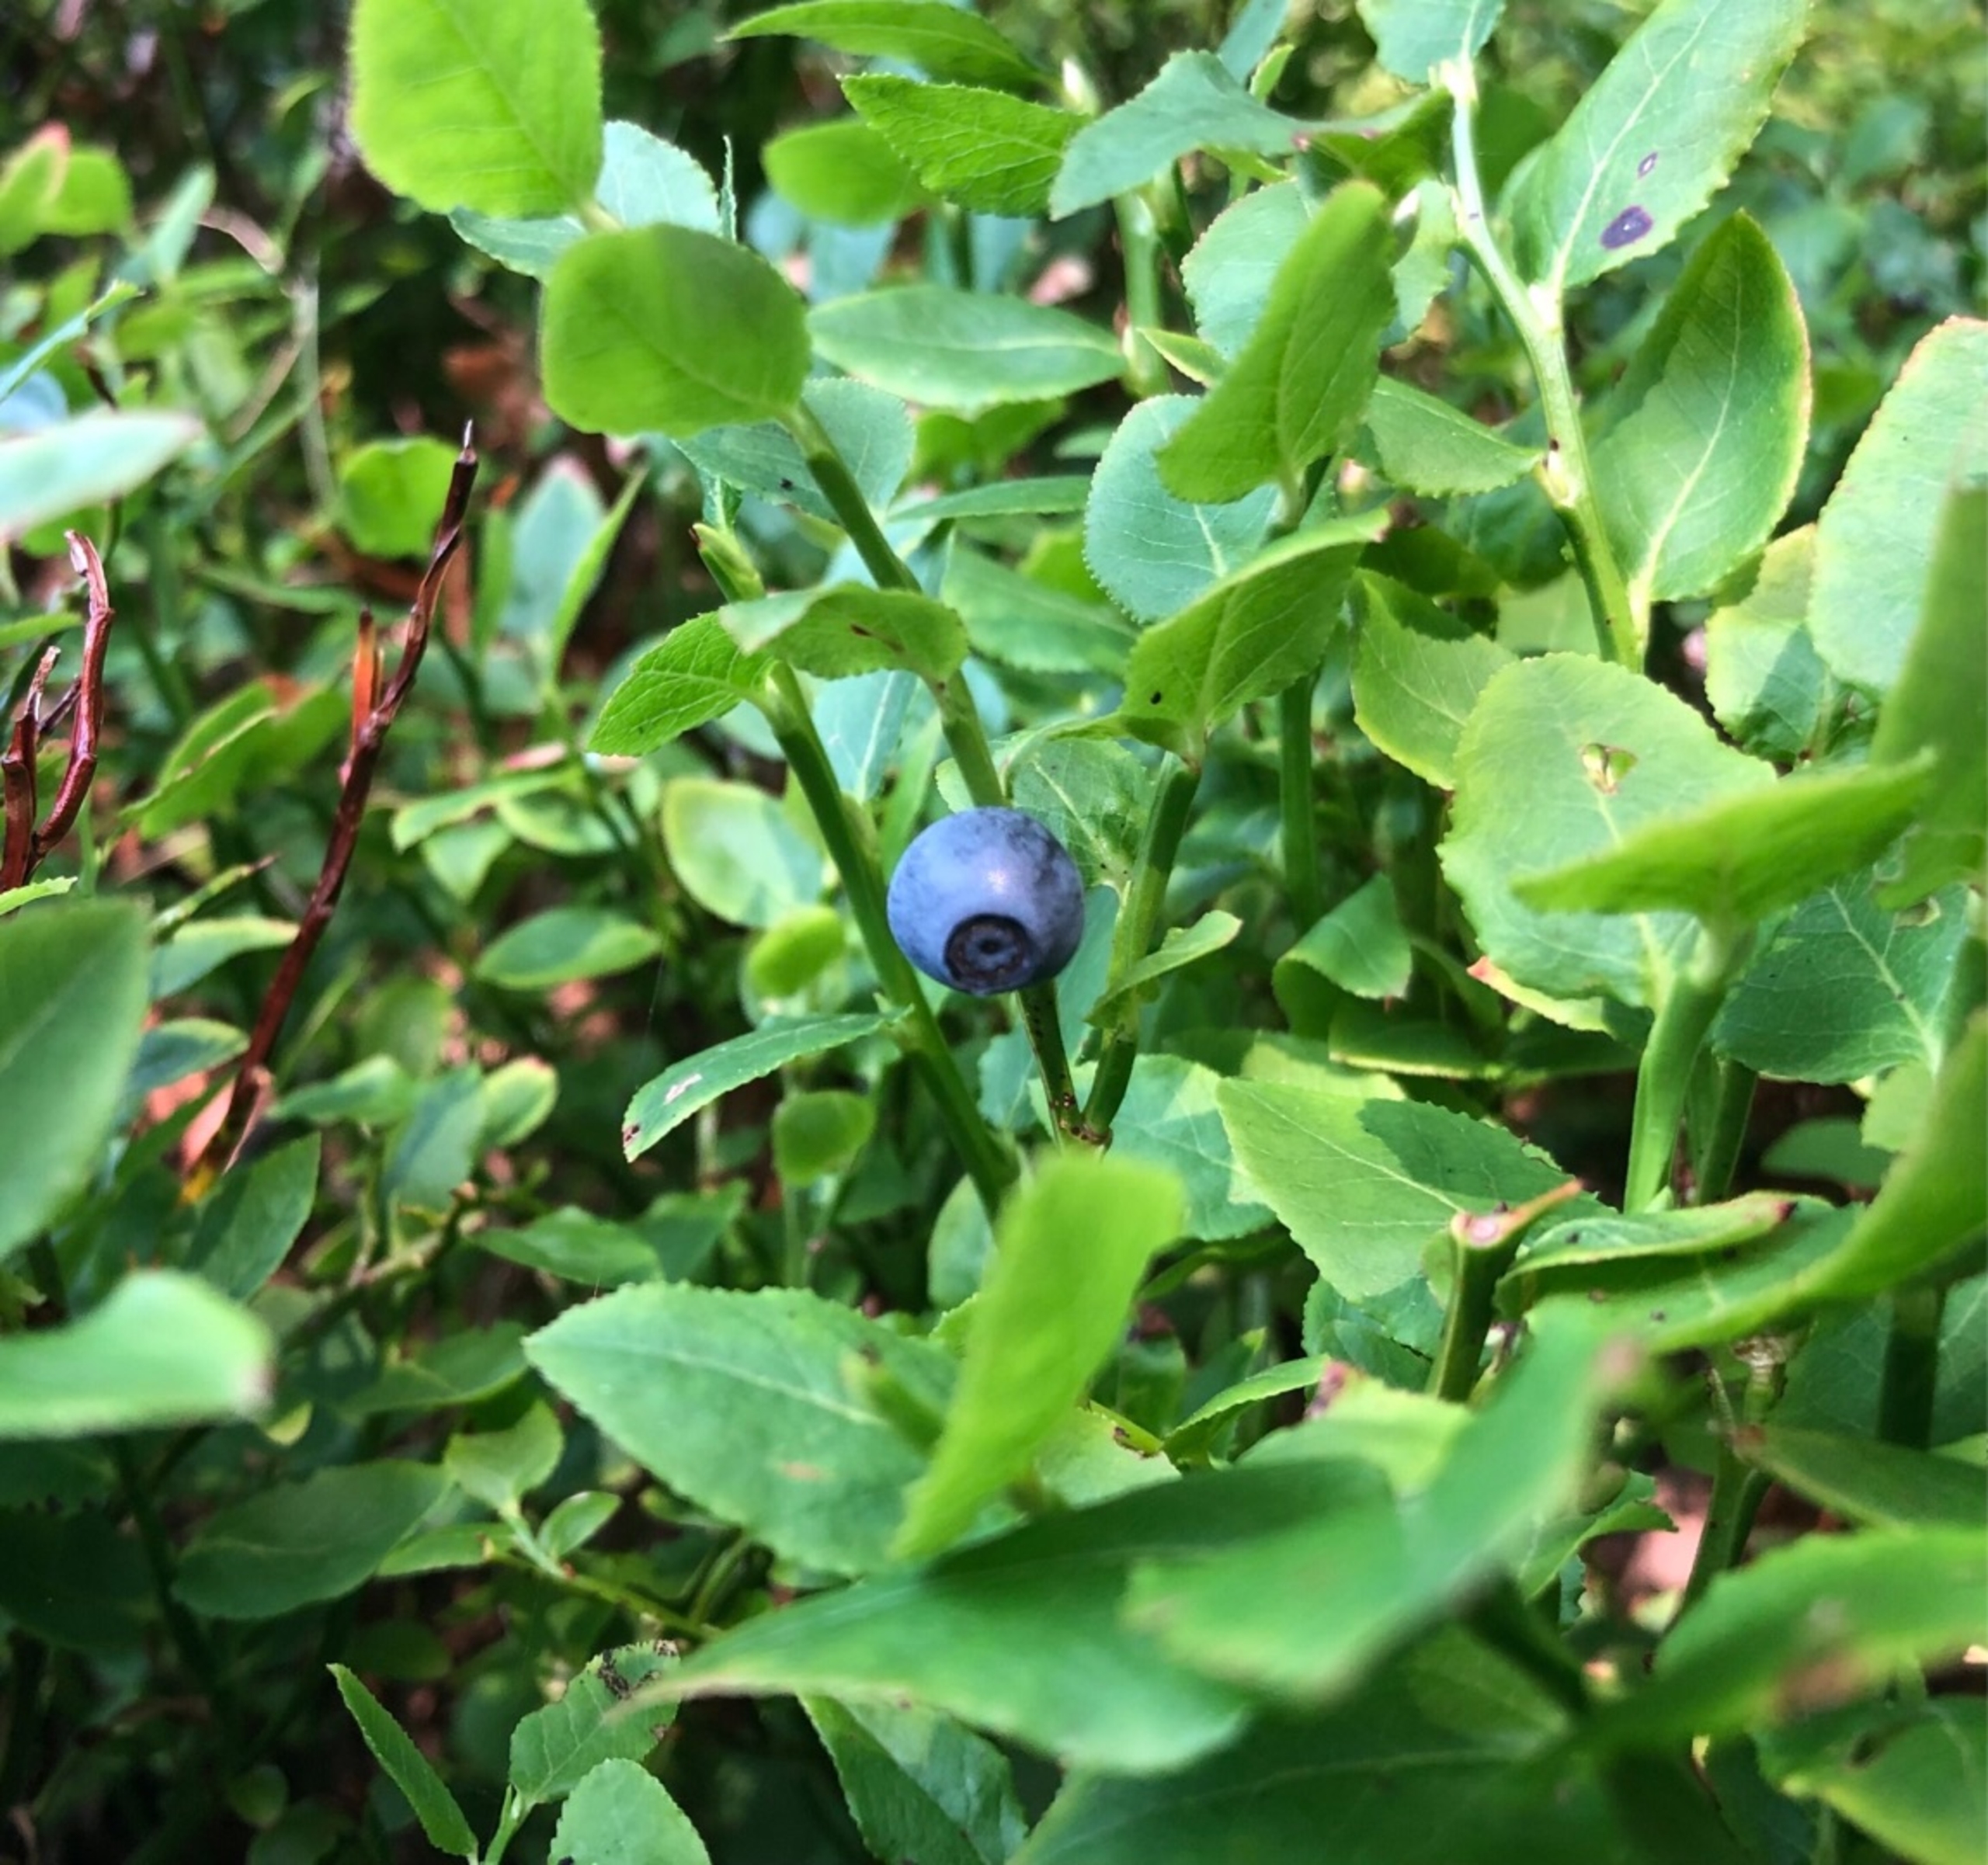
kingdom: Plantae
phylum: Tracheophyta
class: Magnoliopsida
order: Ericales
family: Ericaceae
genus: Vaccinium
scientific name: Vaccinium myrtillus
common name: Blåbær
